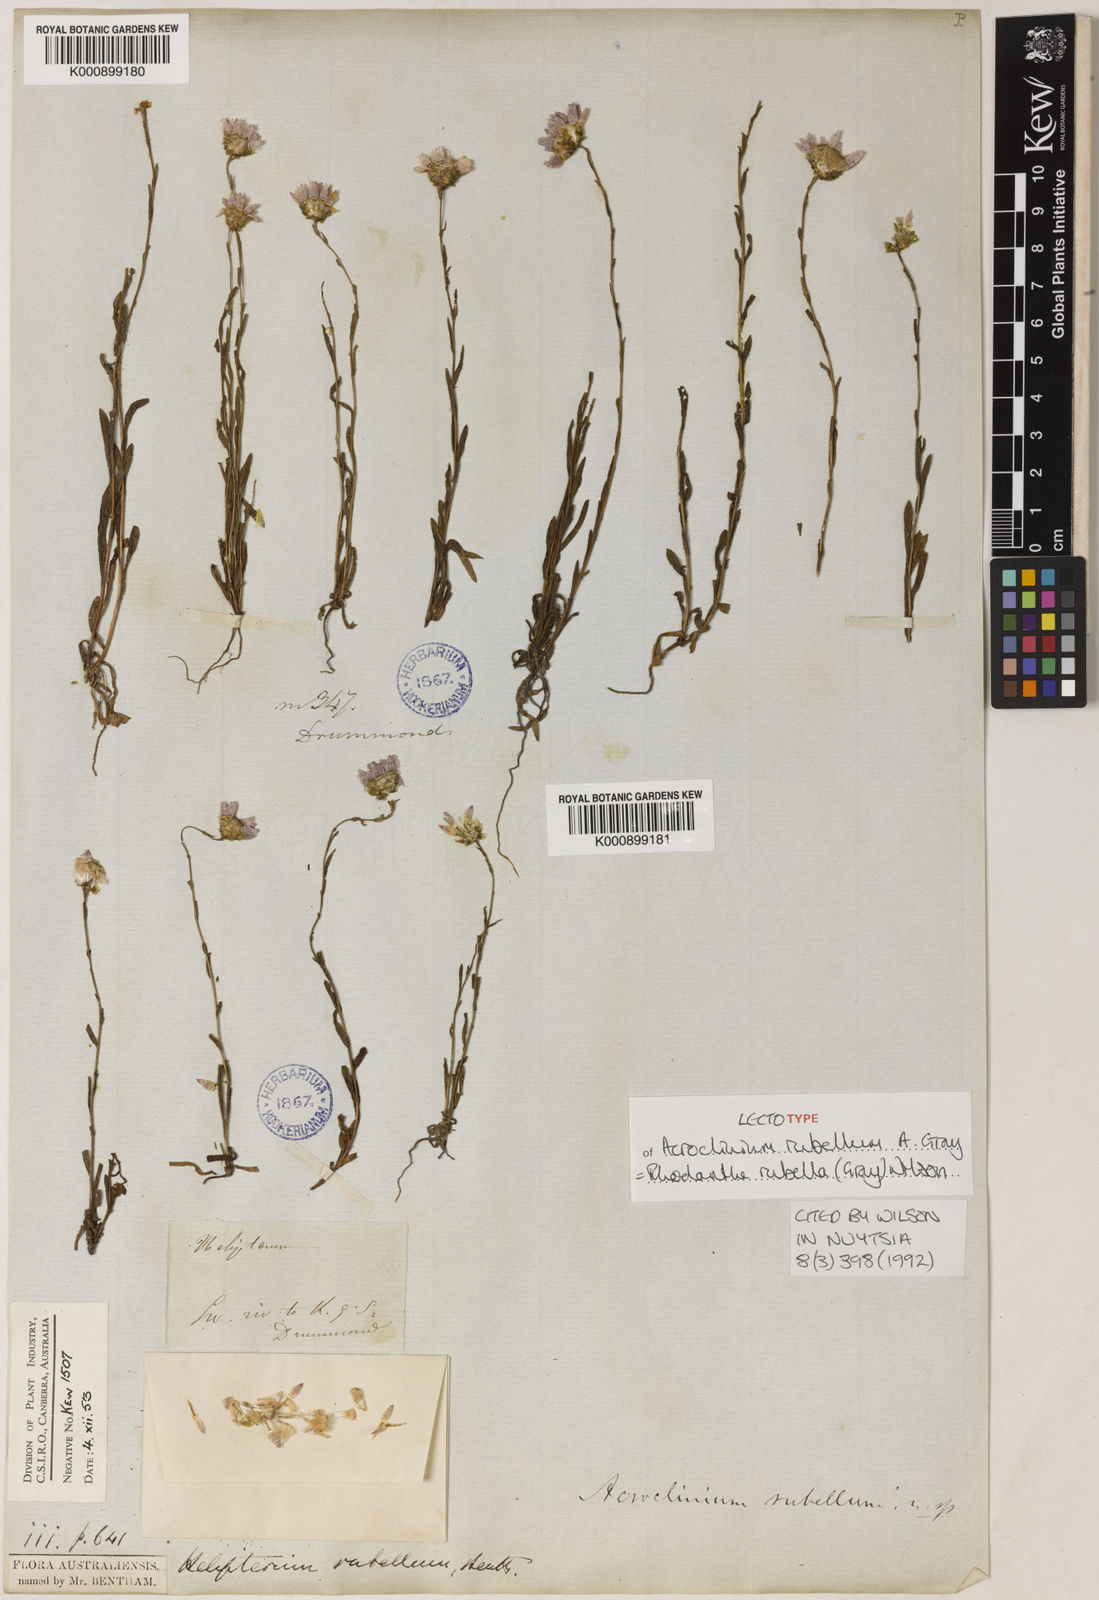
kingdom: Plantae
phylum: Tracheophyta
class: Magnoliopsida
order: Asterales
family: Asteraceae
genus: Rhodanthe
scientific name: Rhodanthe rubella
